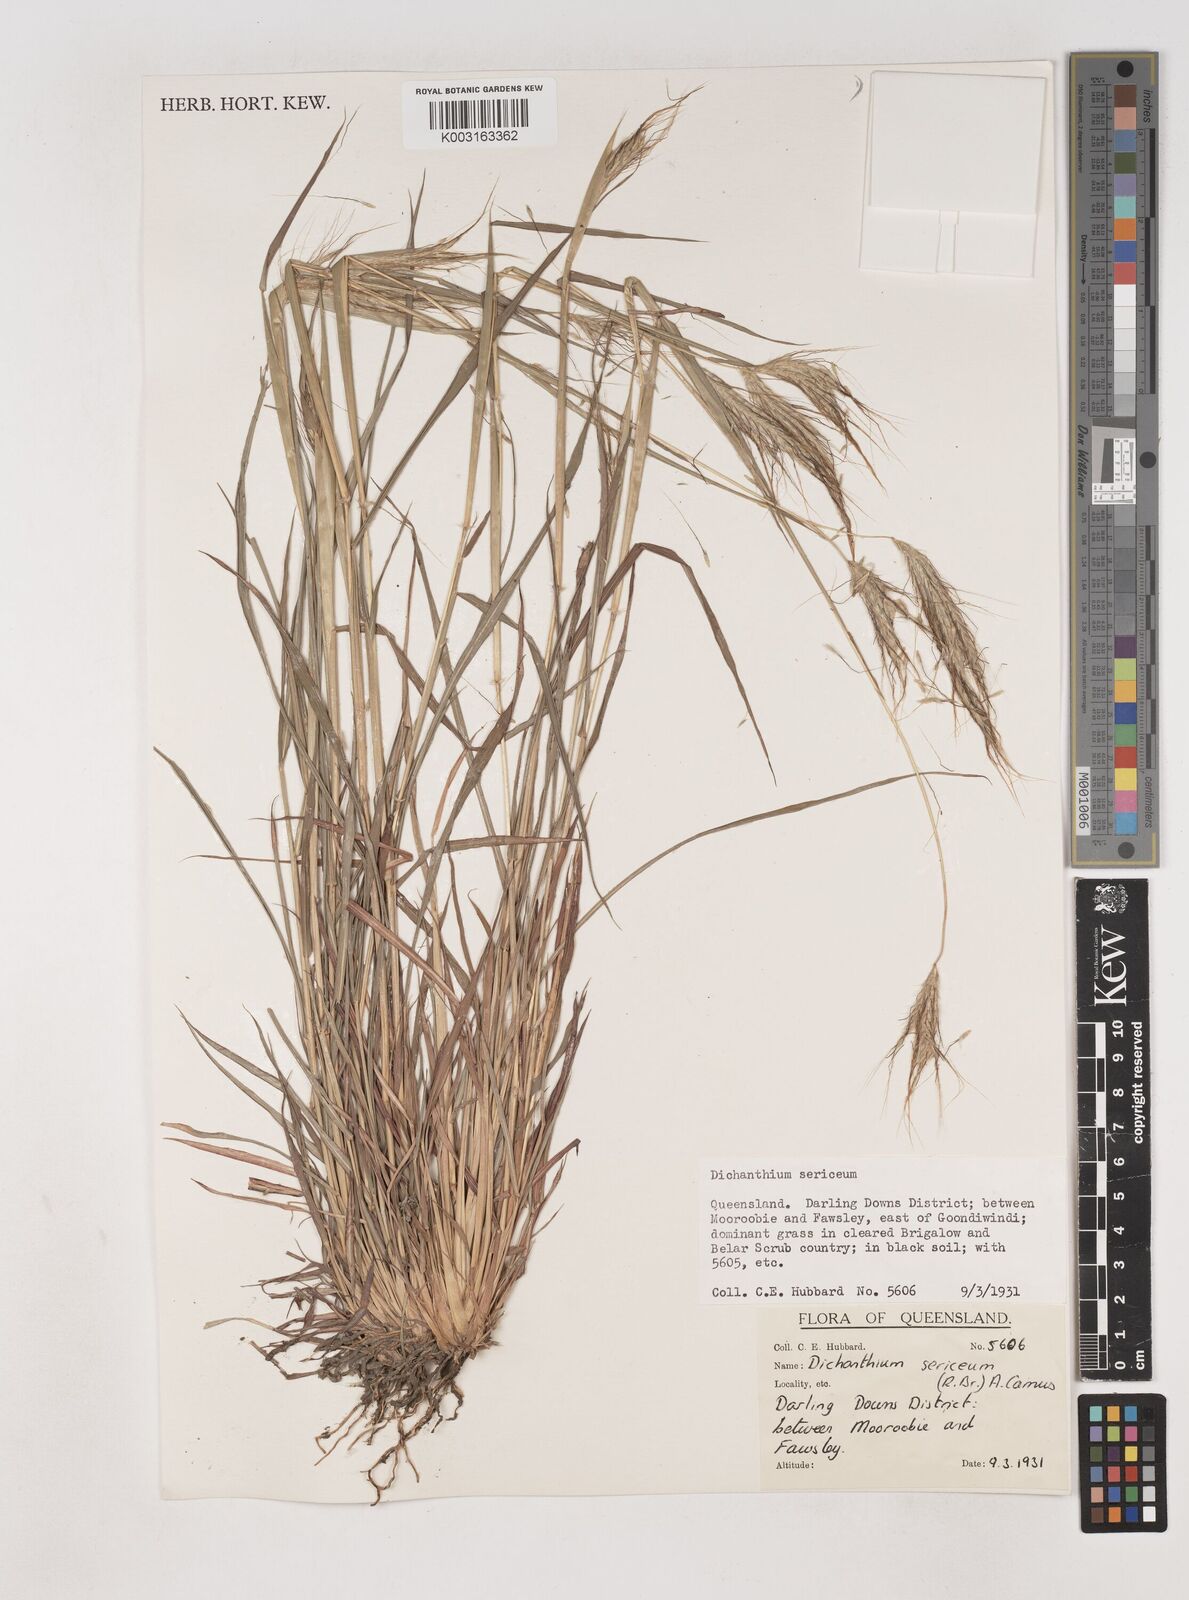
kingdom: Plantae
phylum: Tracheophyta
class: Liliopsida
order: Poales
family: Poaceae
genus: Dichanthium
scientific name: Dichanthium sericeum
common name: Silky bluestem
